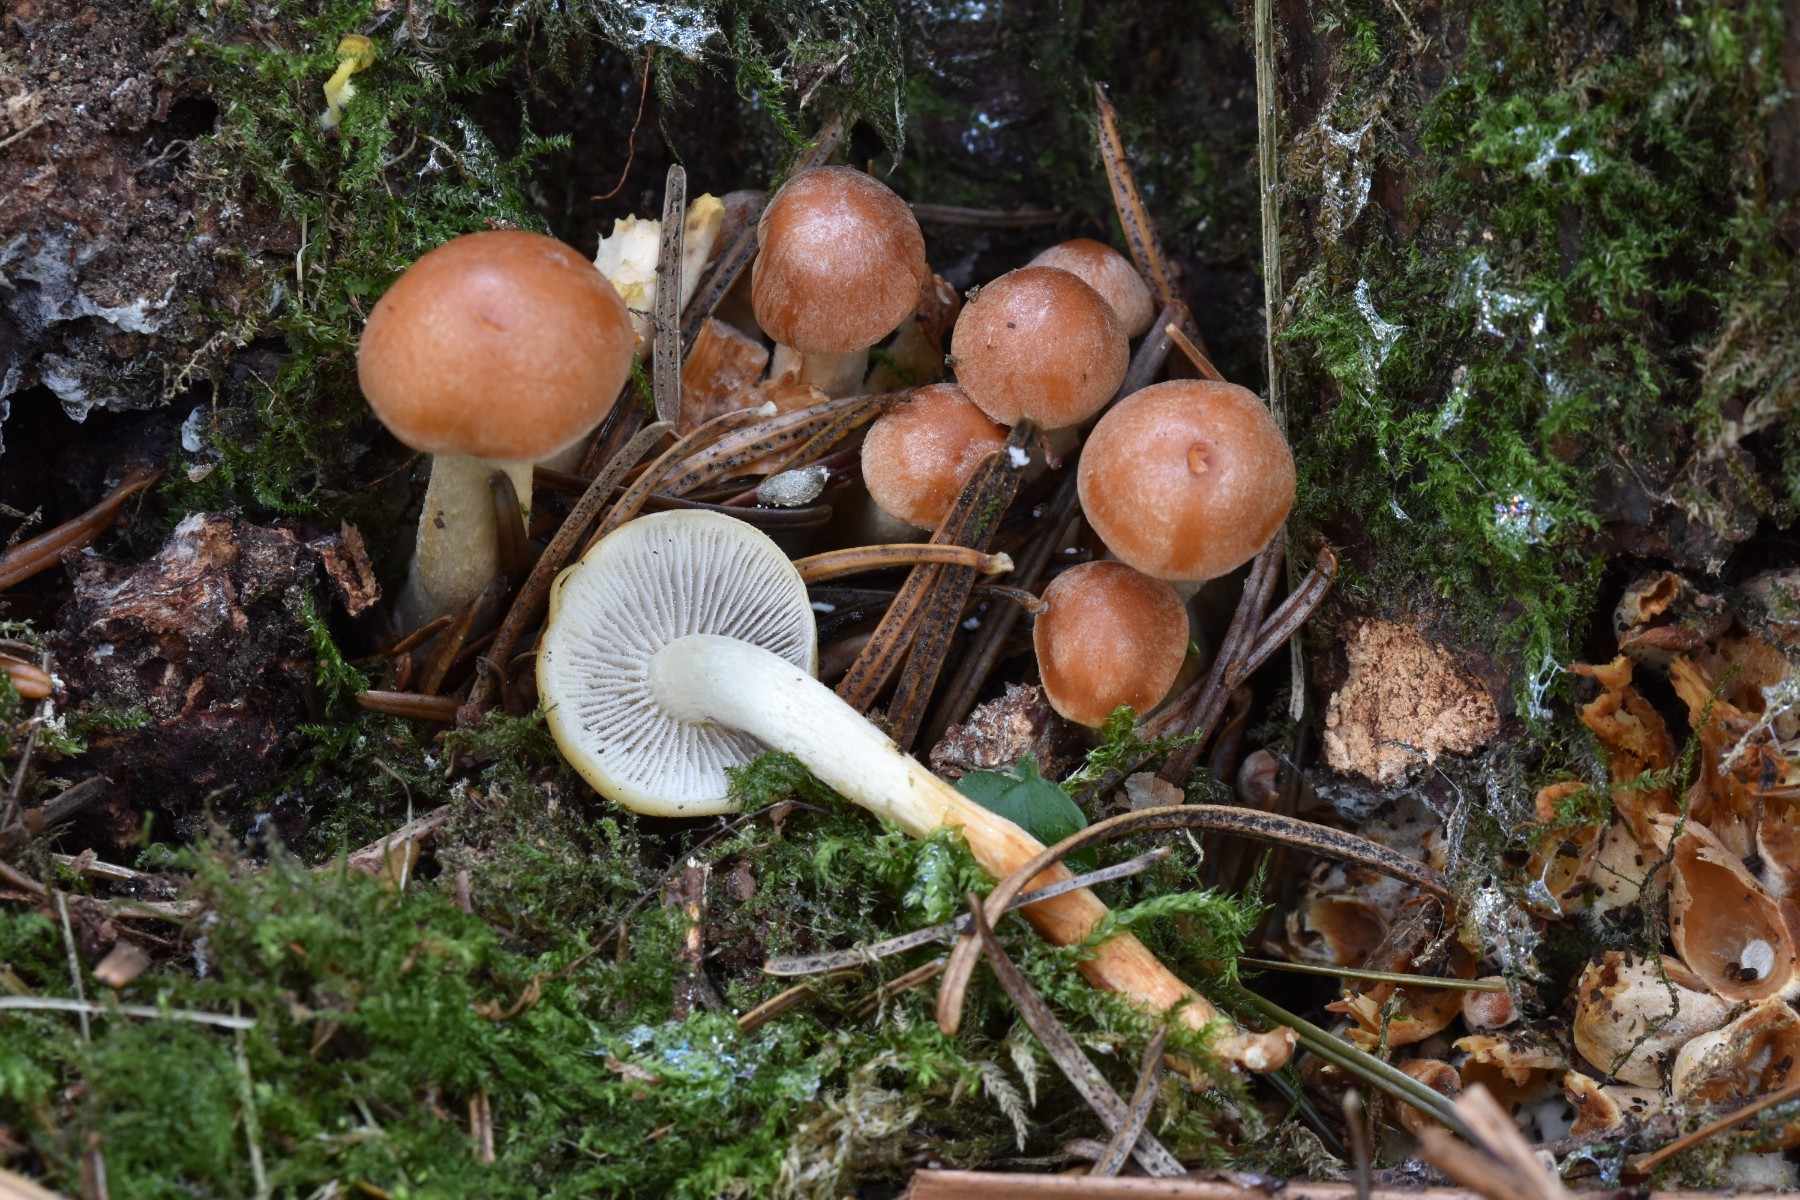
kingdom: Fungi
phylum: Basidiomycota
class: Agaricomycetes
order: Agaricales
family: Strophariaceae
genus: Hypholoma
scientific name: Hypholoma capnoides
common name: gran-svovlhat
